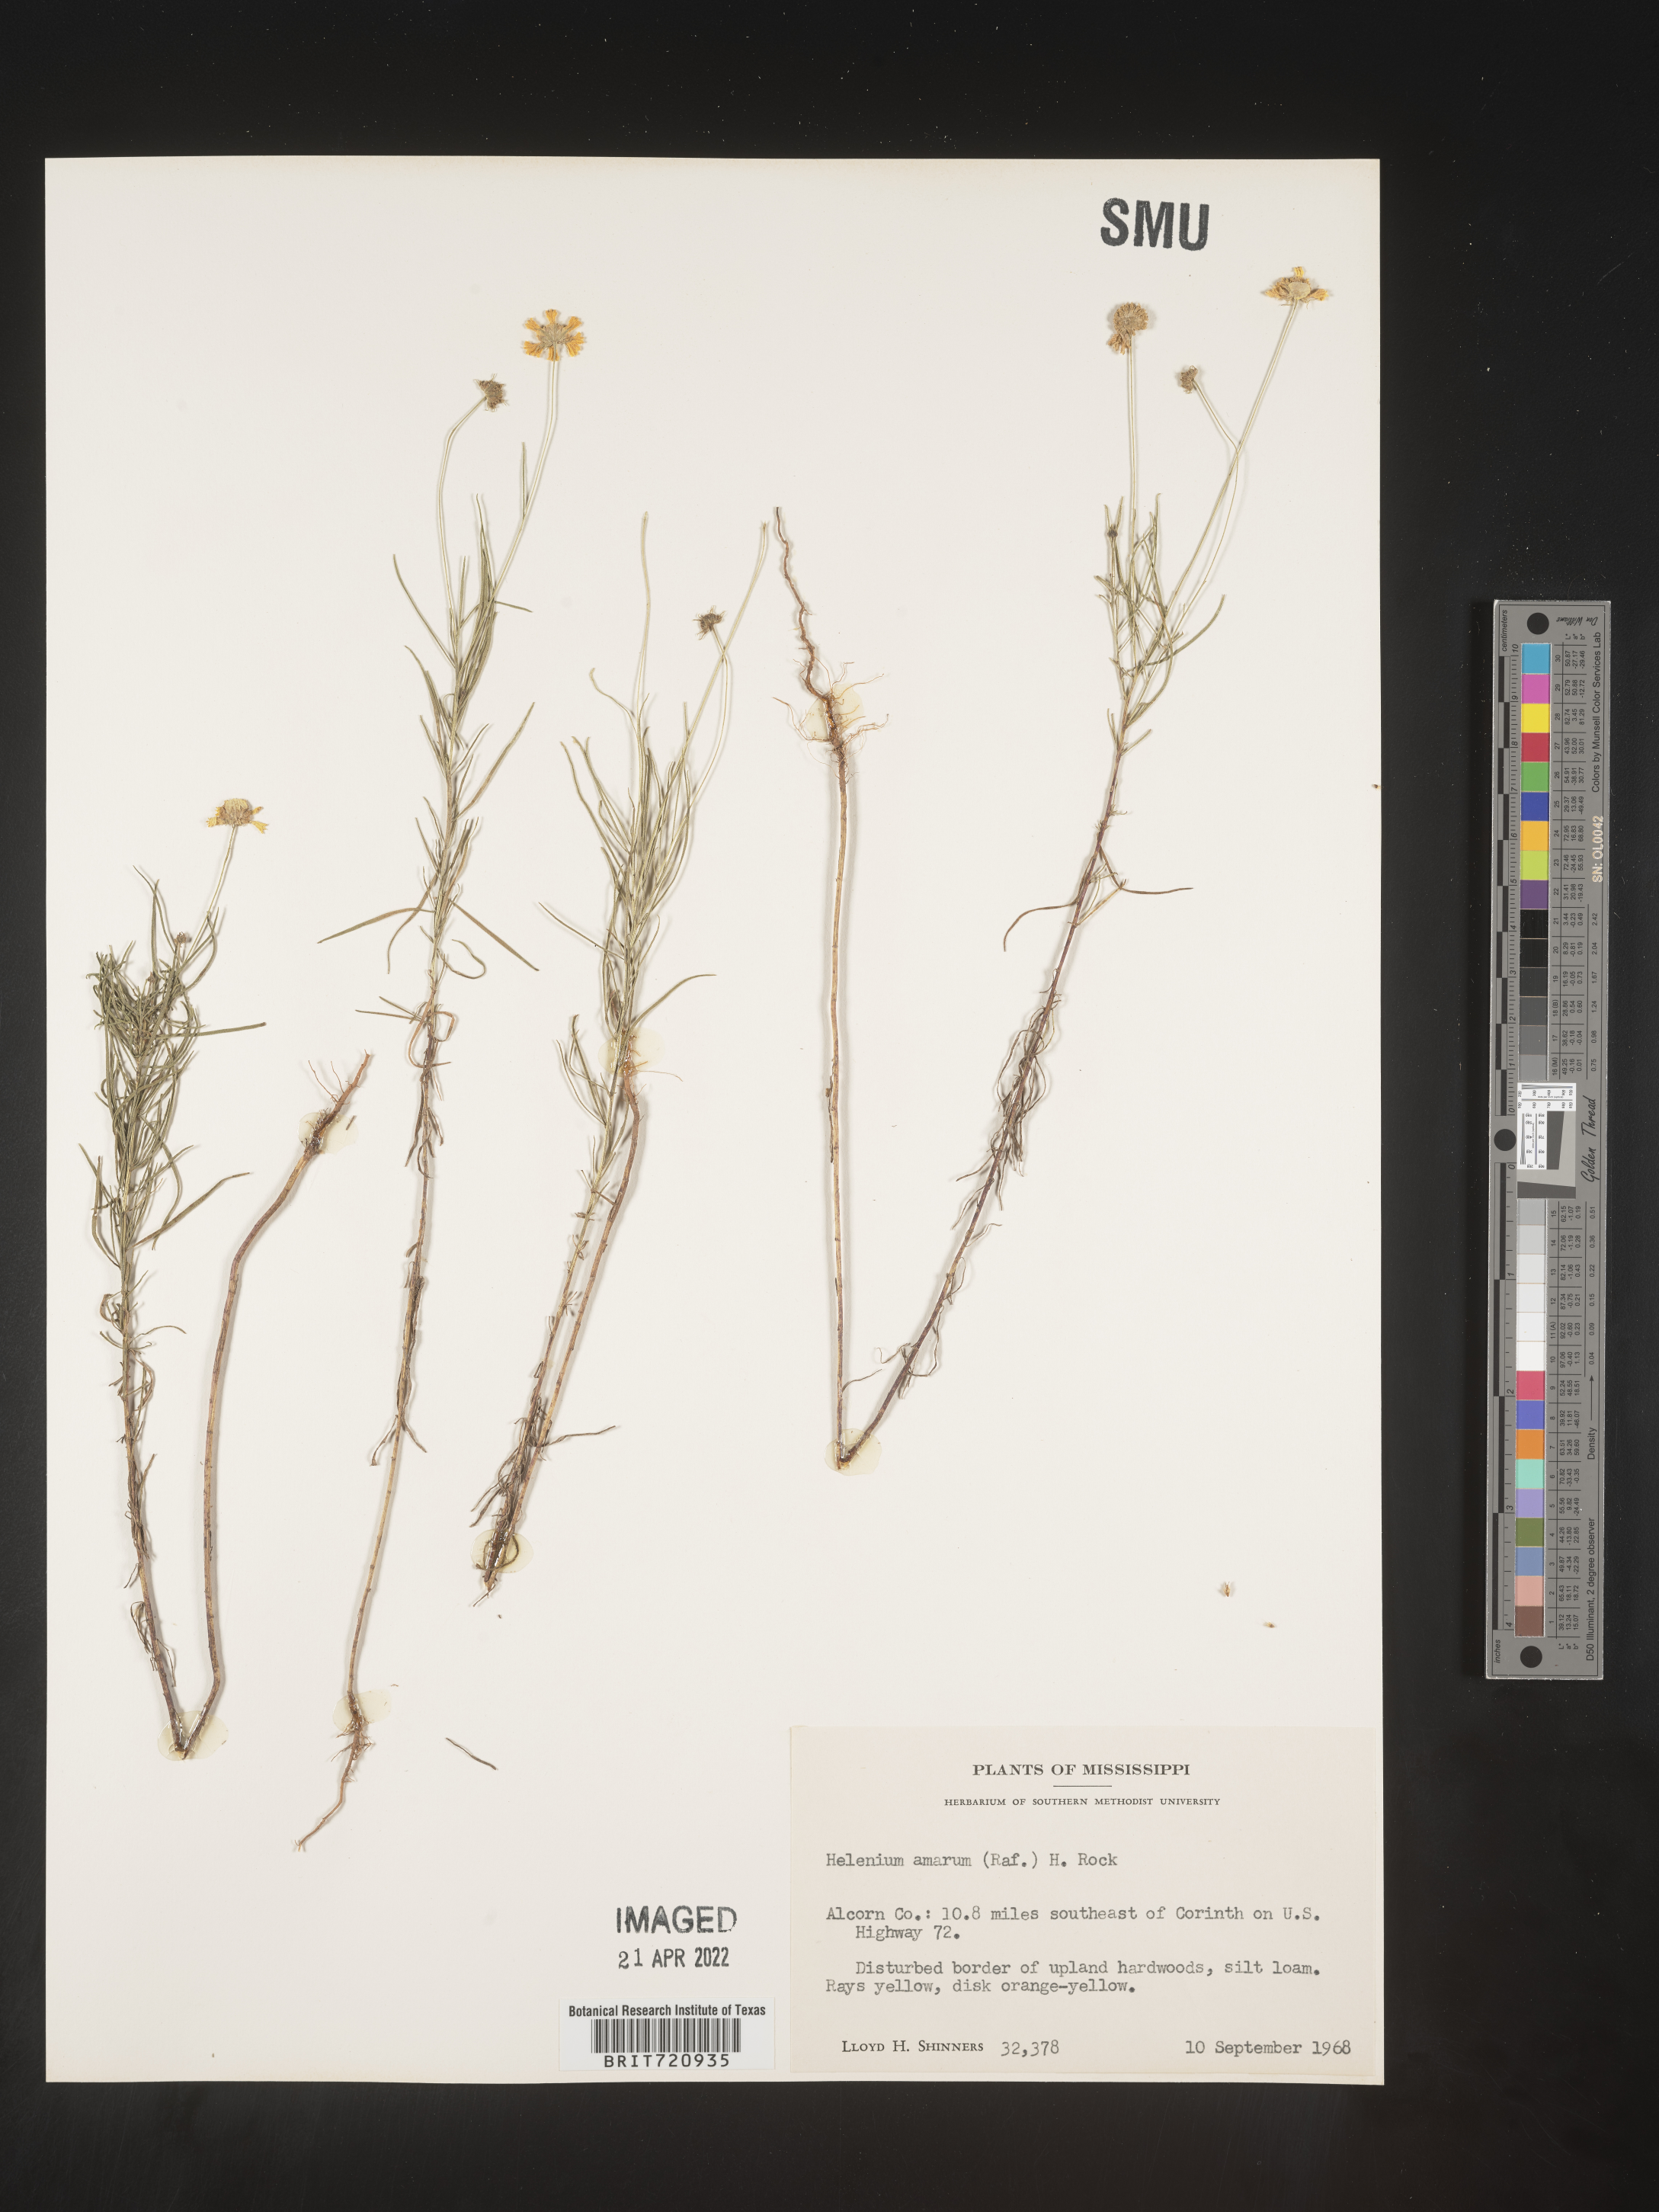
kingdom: Plantae
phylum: Tracheophyta
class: Magnoliopsida
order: Asterales
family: Asteraceae
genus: Helenium
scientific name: Helenium amarum
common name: Bitter sneezeweed
